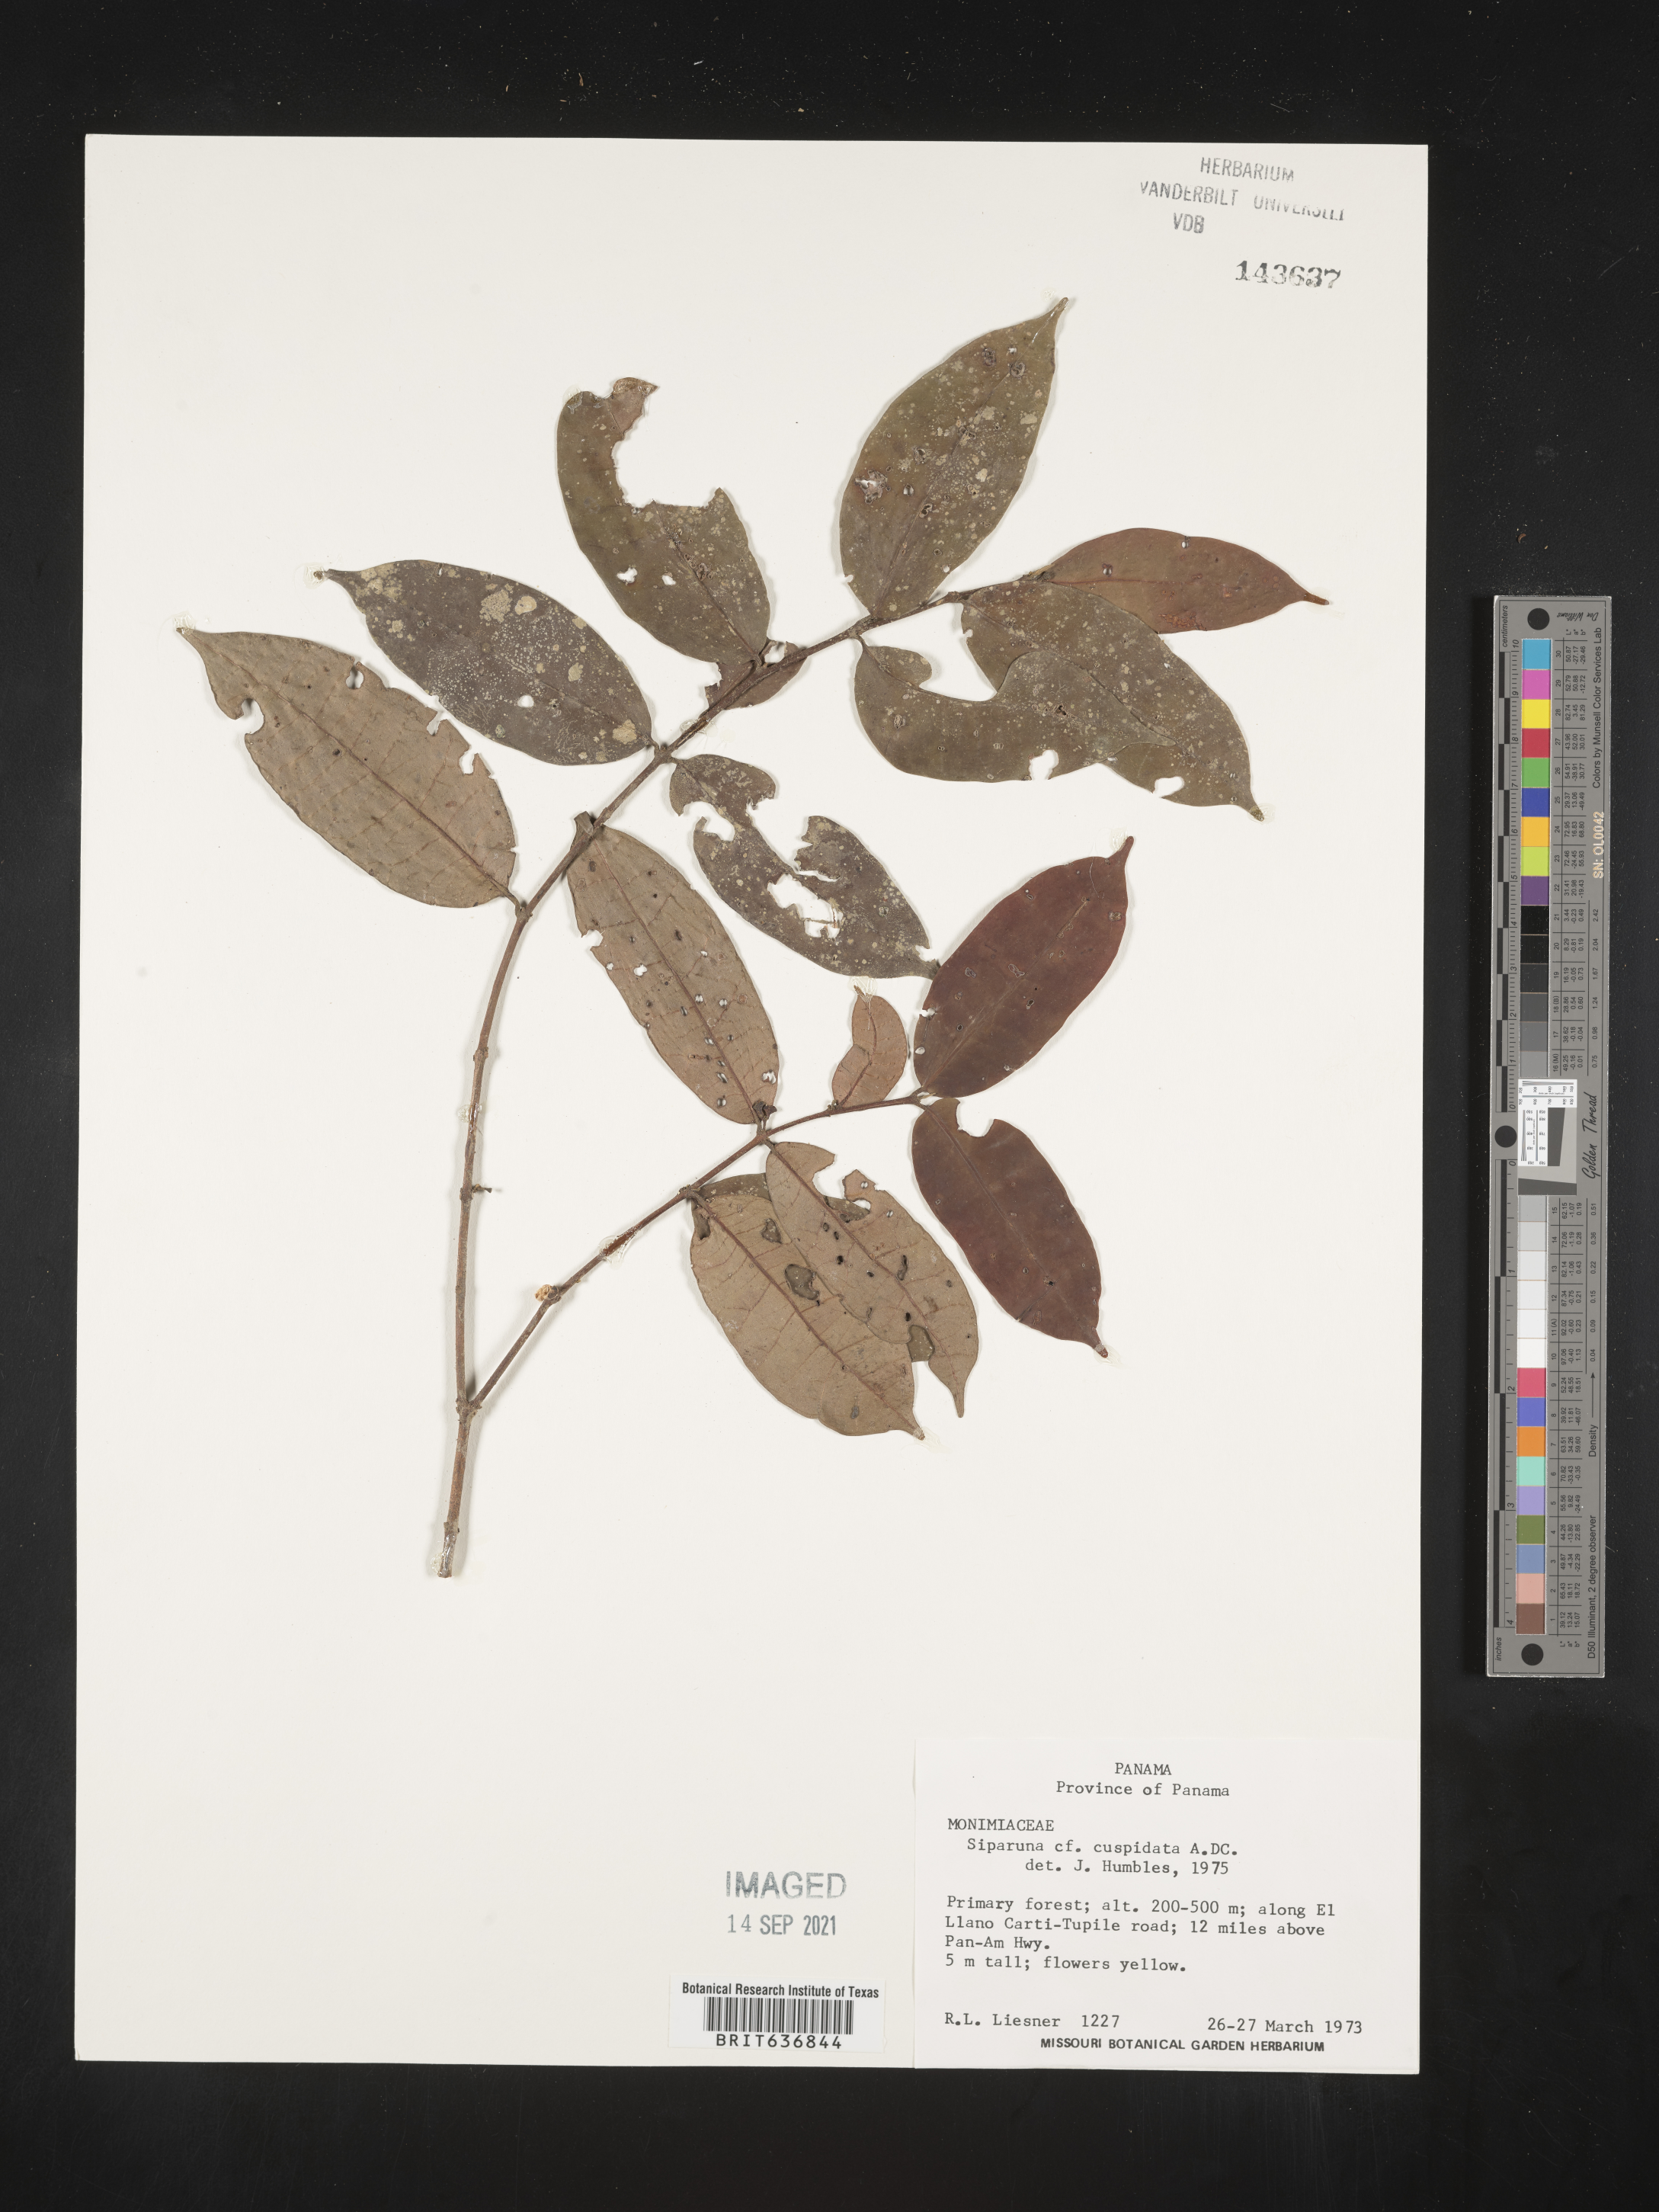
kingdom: Plantae
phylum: Tracheophyta
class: Magnoliopsida
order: Laurales
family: Siparunaceae
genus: Siparuna
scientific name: Siparuna
